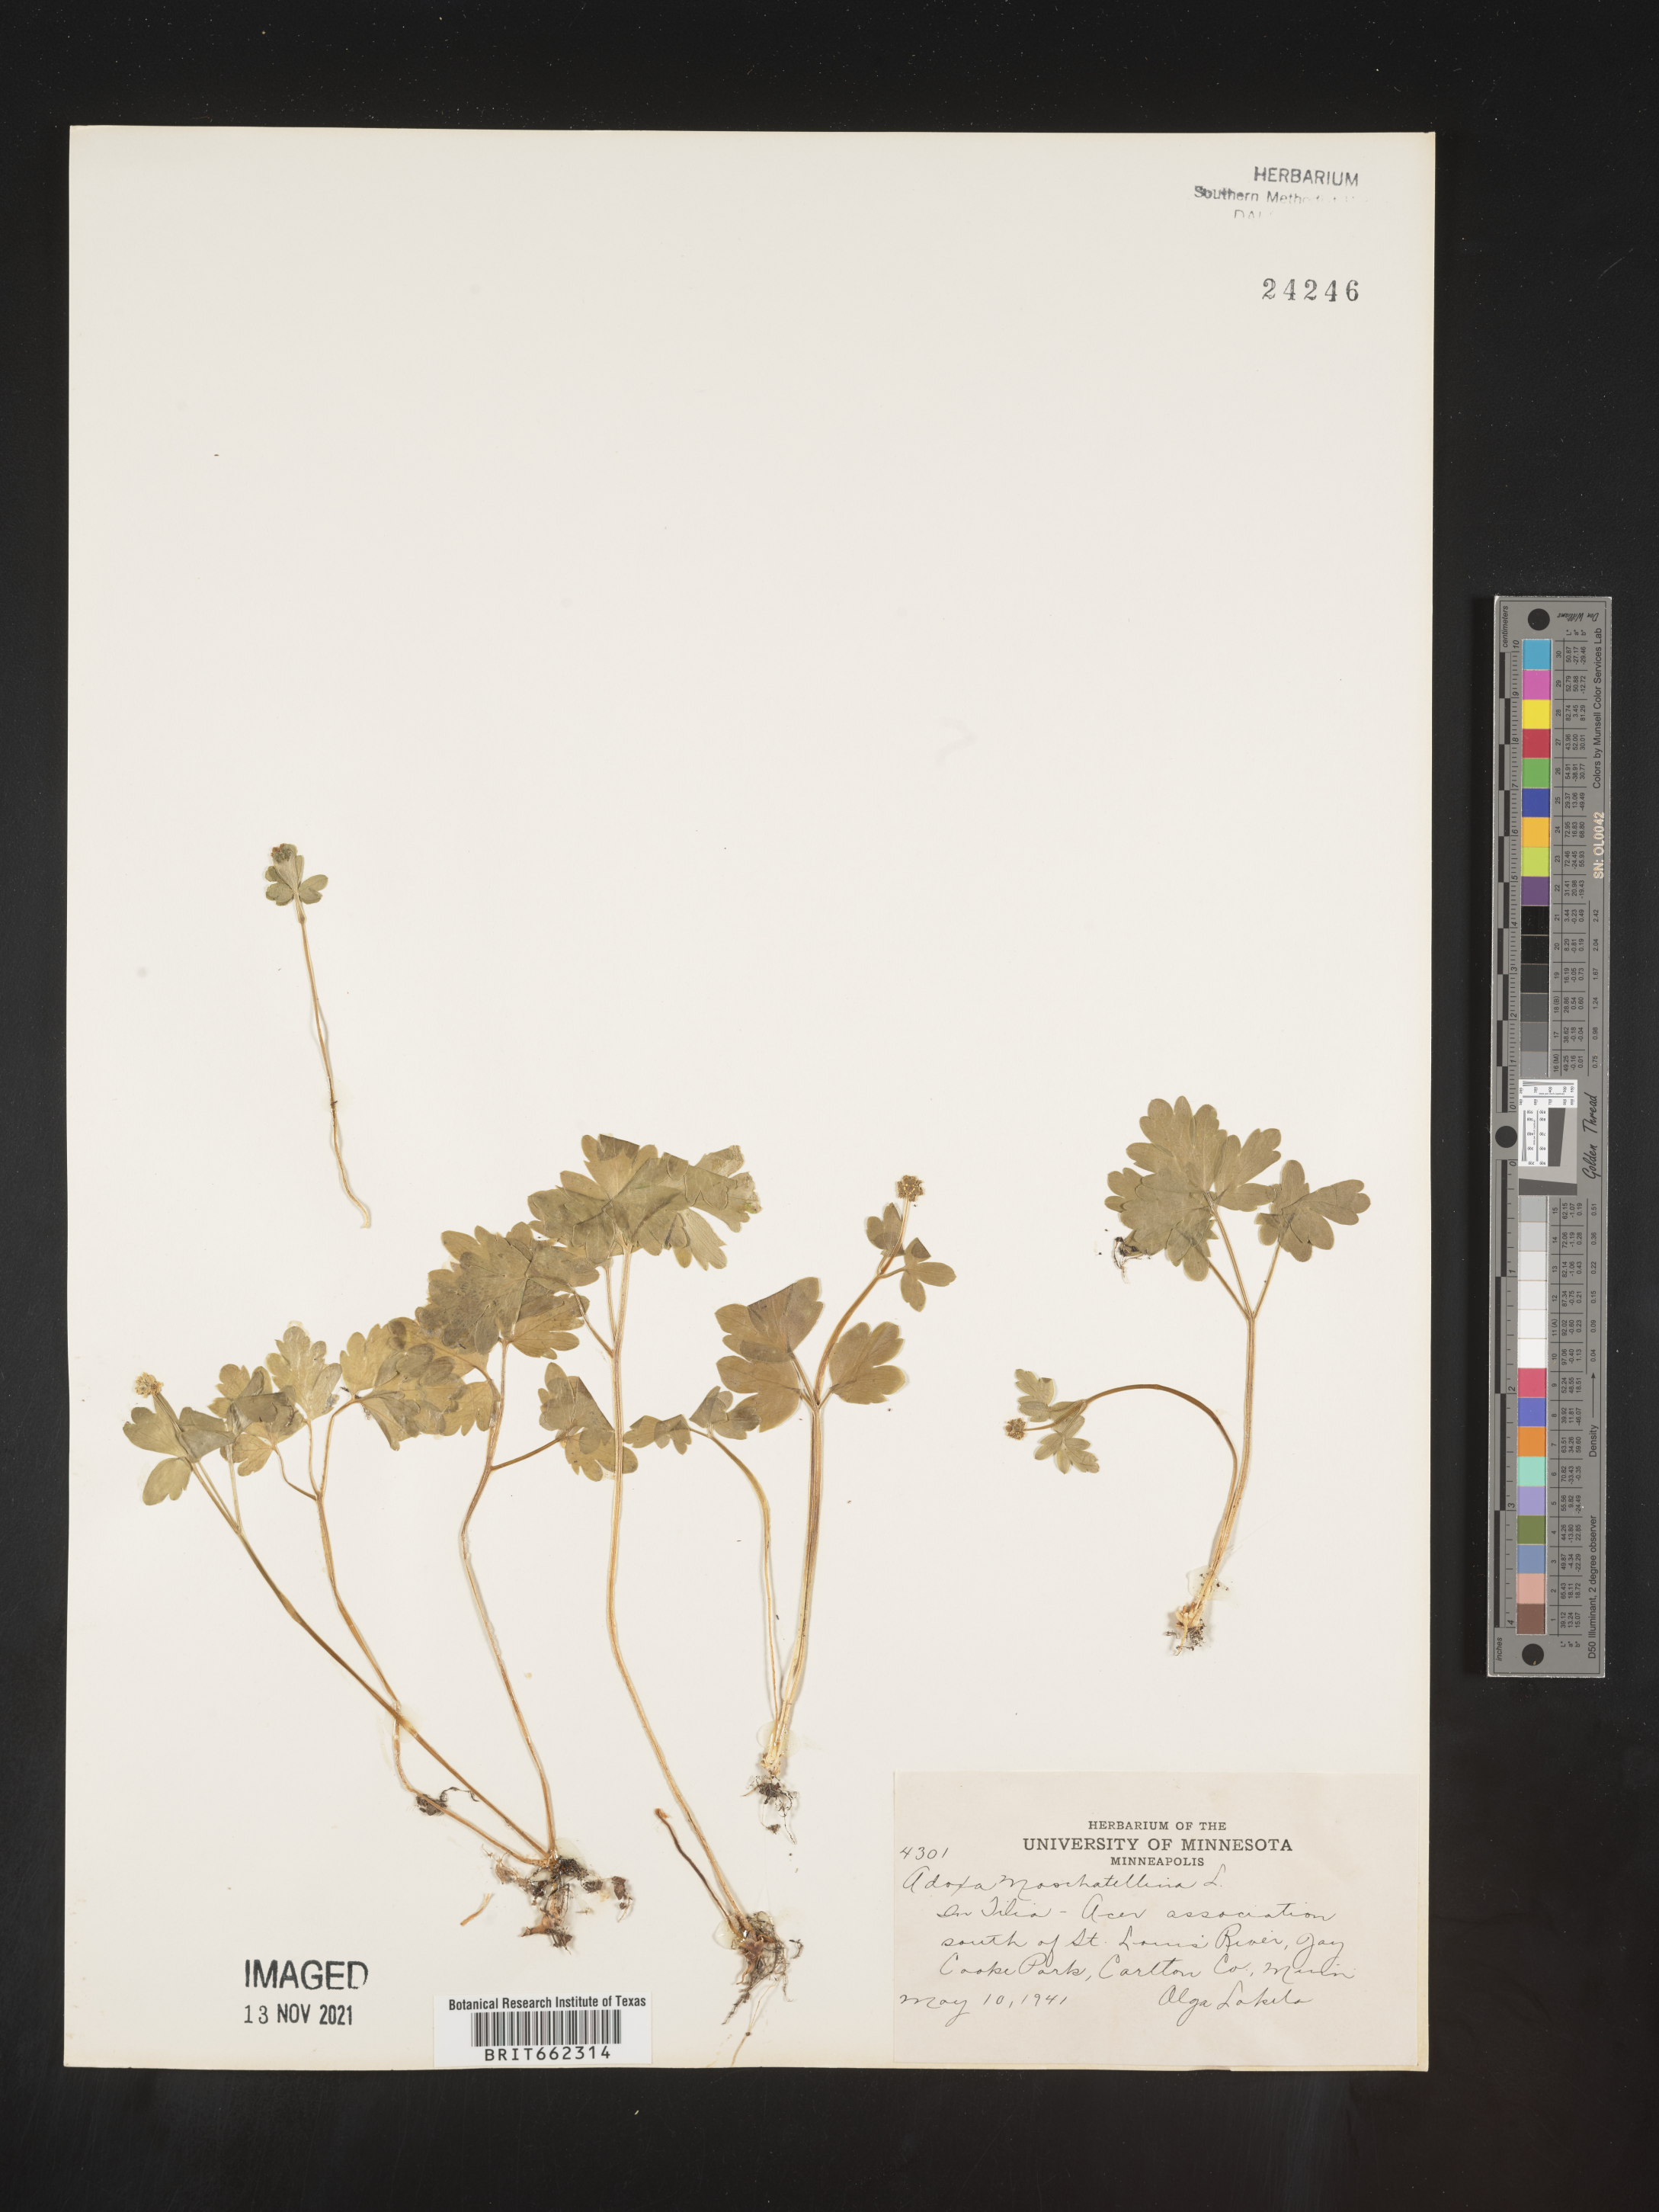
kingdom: Plantae
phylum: Tracheophyta
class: Magnoliopsida
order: Dipsacales
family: Viburnaceae
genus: Adoxa
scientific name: Adoxa
